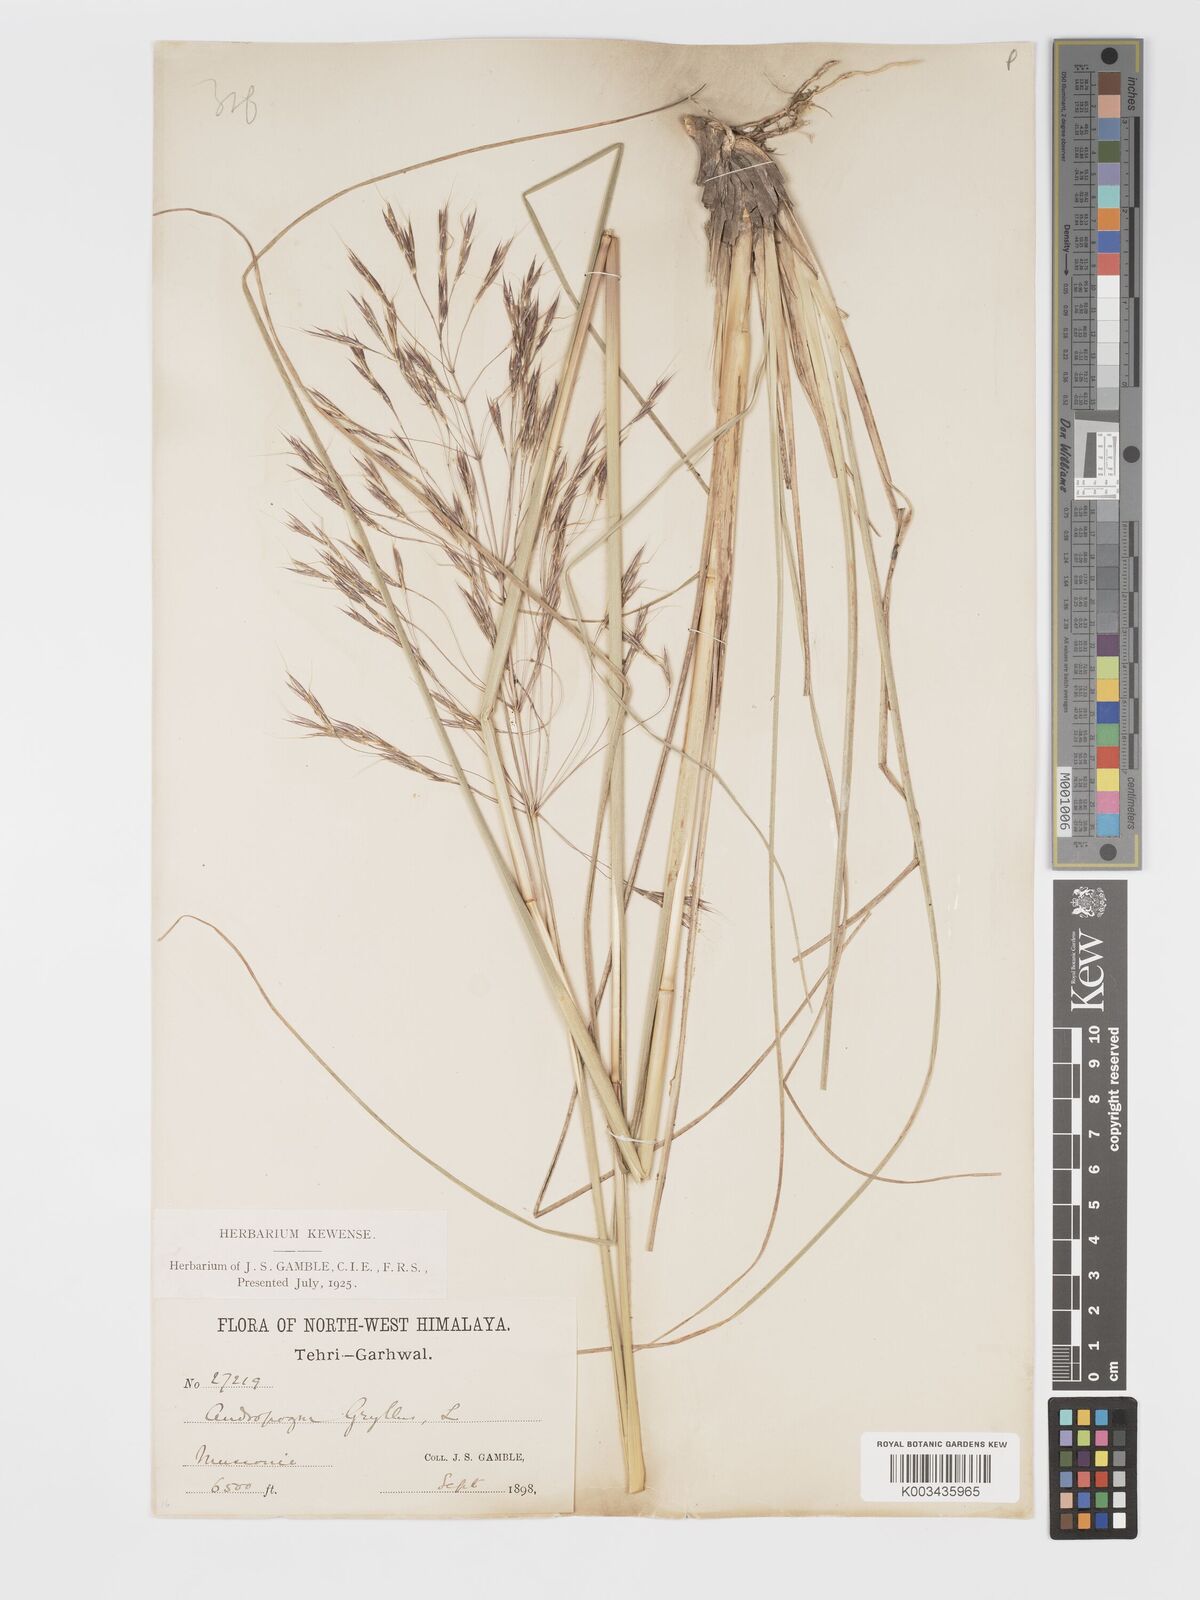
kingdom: Plantae
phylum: Tracheophyta
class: Liliopsida
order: Poales
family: Poaceae
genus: Chrysopogon
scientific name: Chrysopogon gryllus
